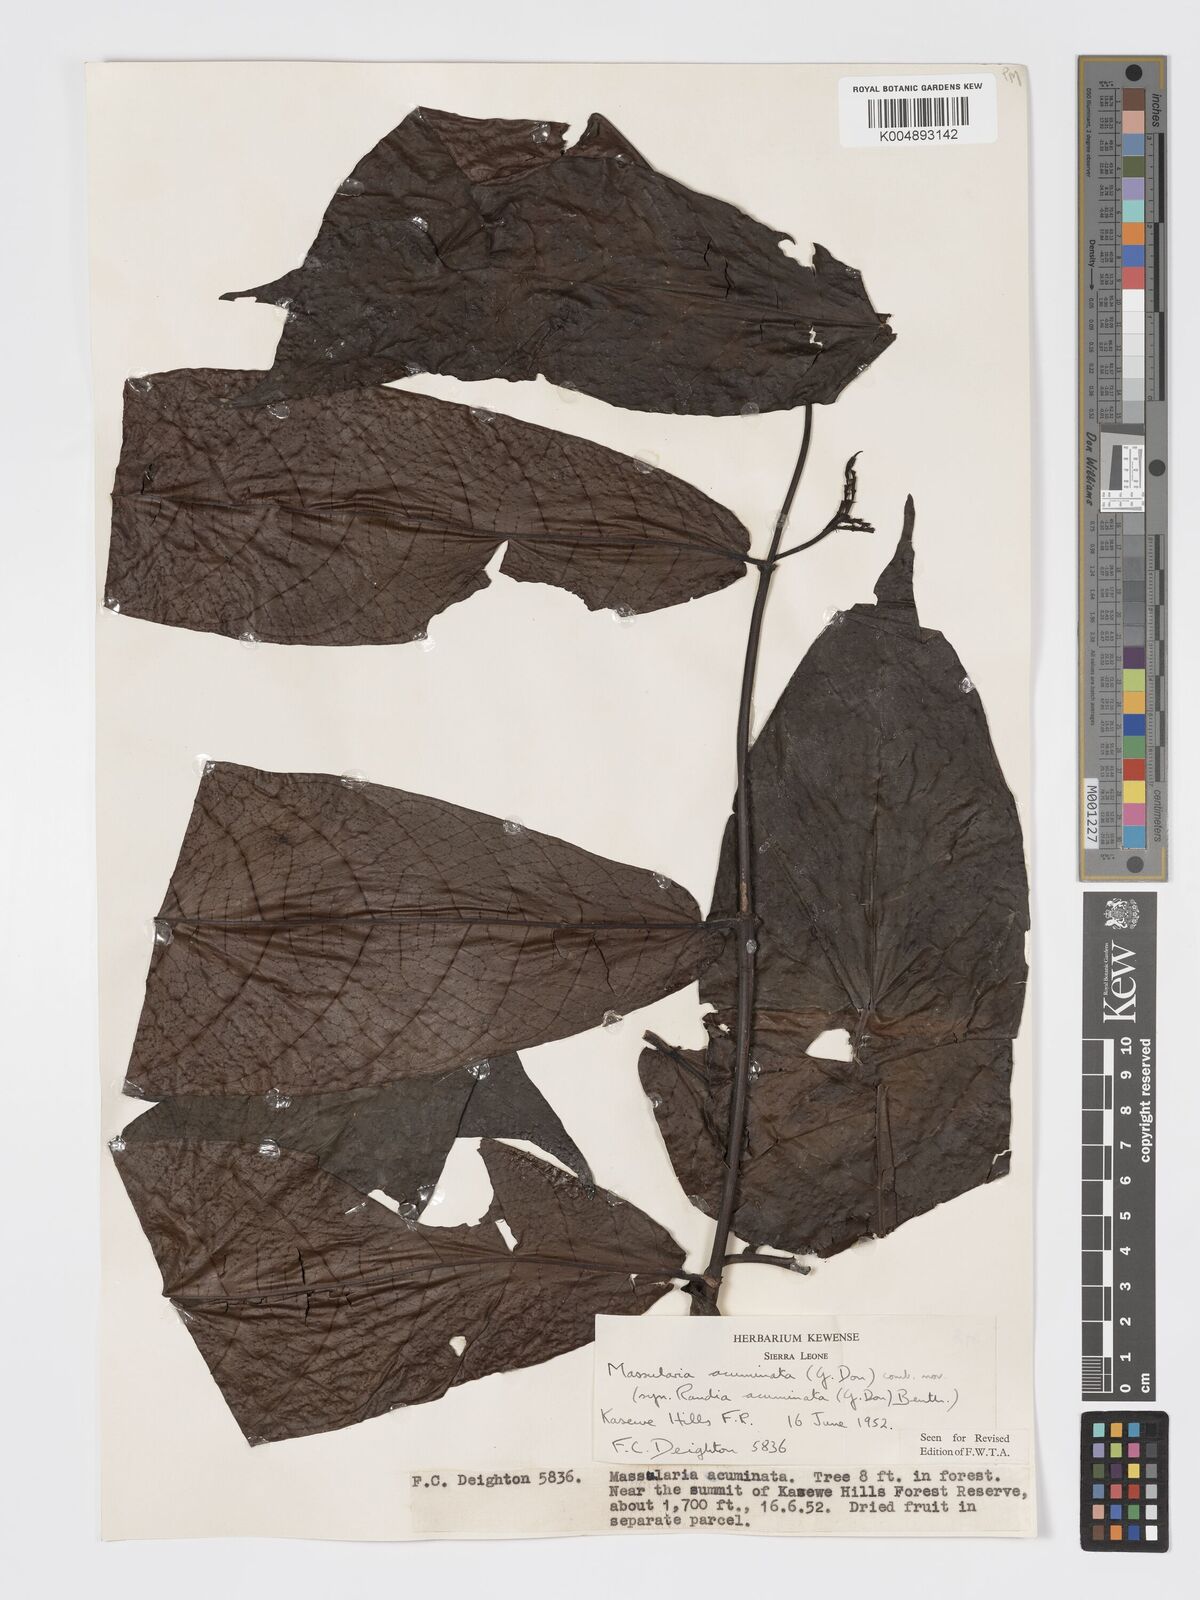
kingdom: Plantae
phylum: Tracheophyta
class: Magnoliopsida
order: Gentianales
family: Rubiaceae
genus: Massularia
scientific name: Massularia acuminata
